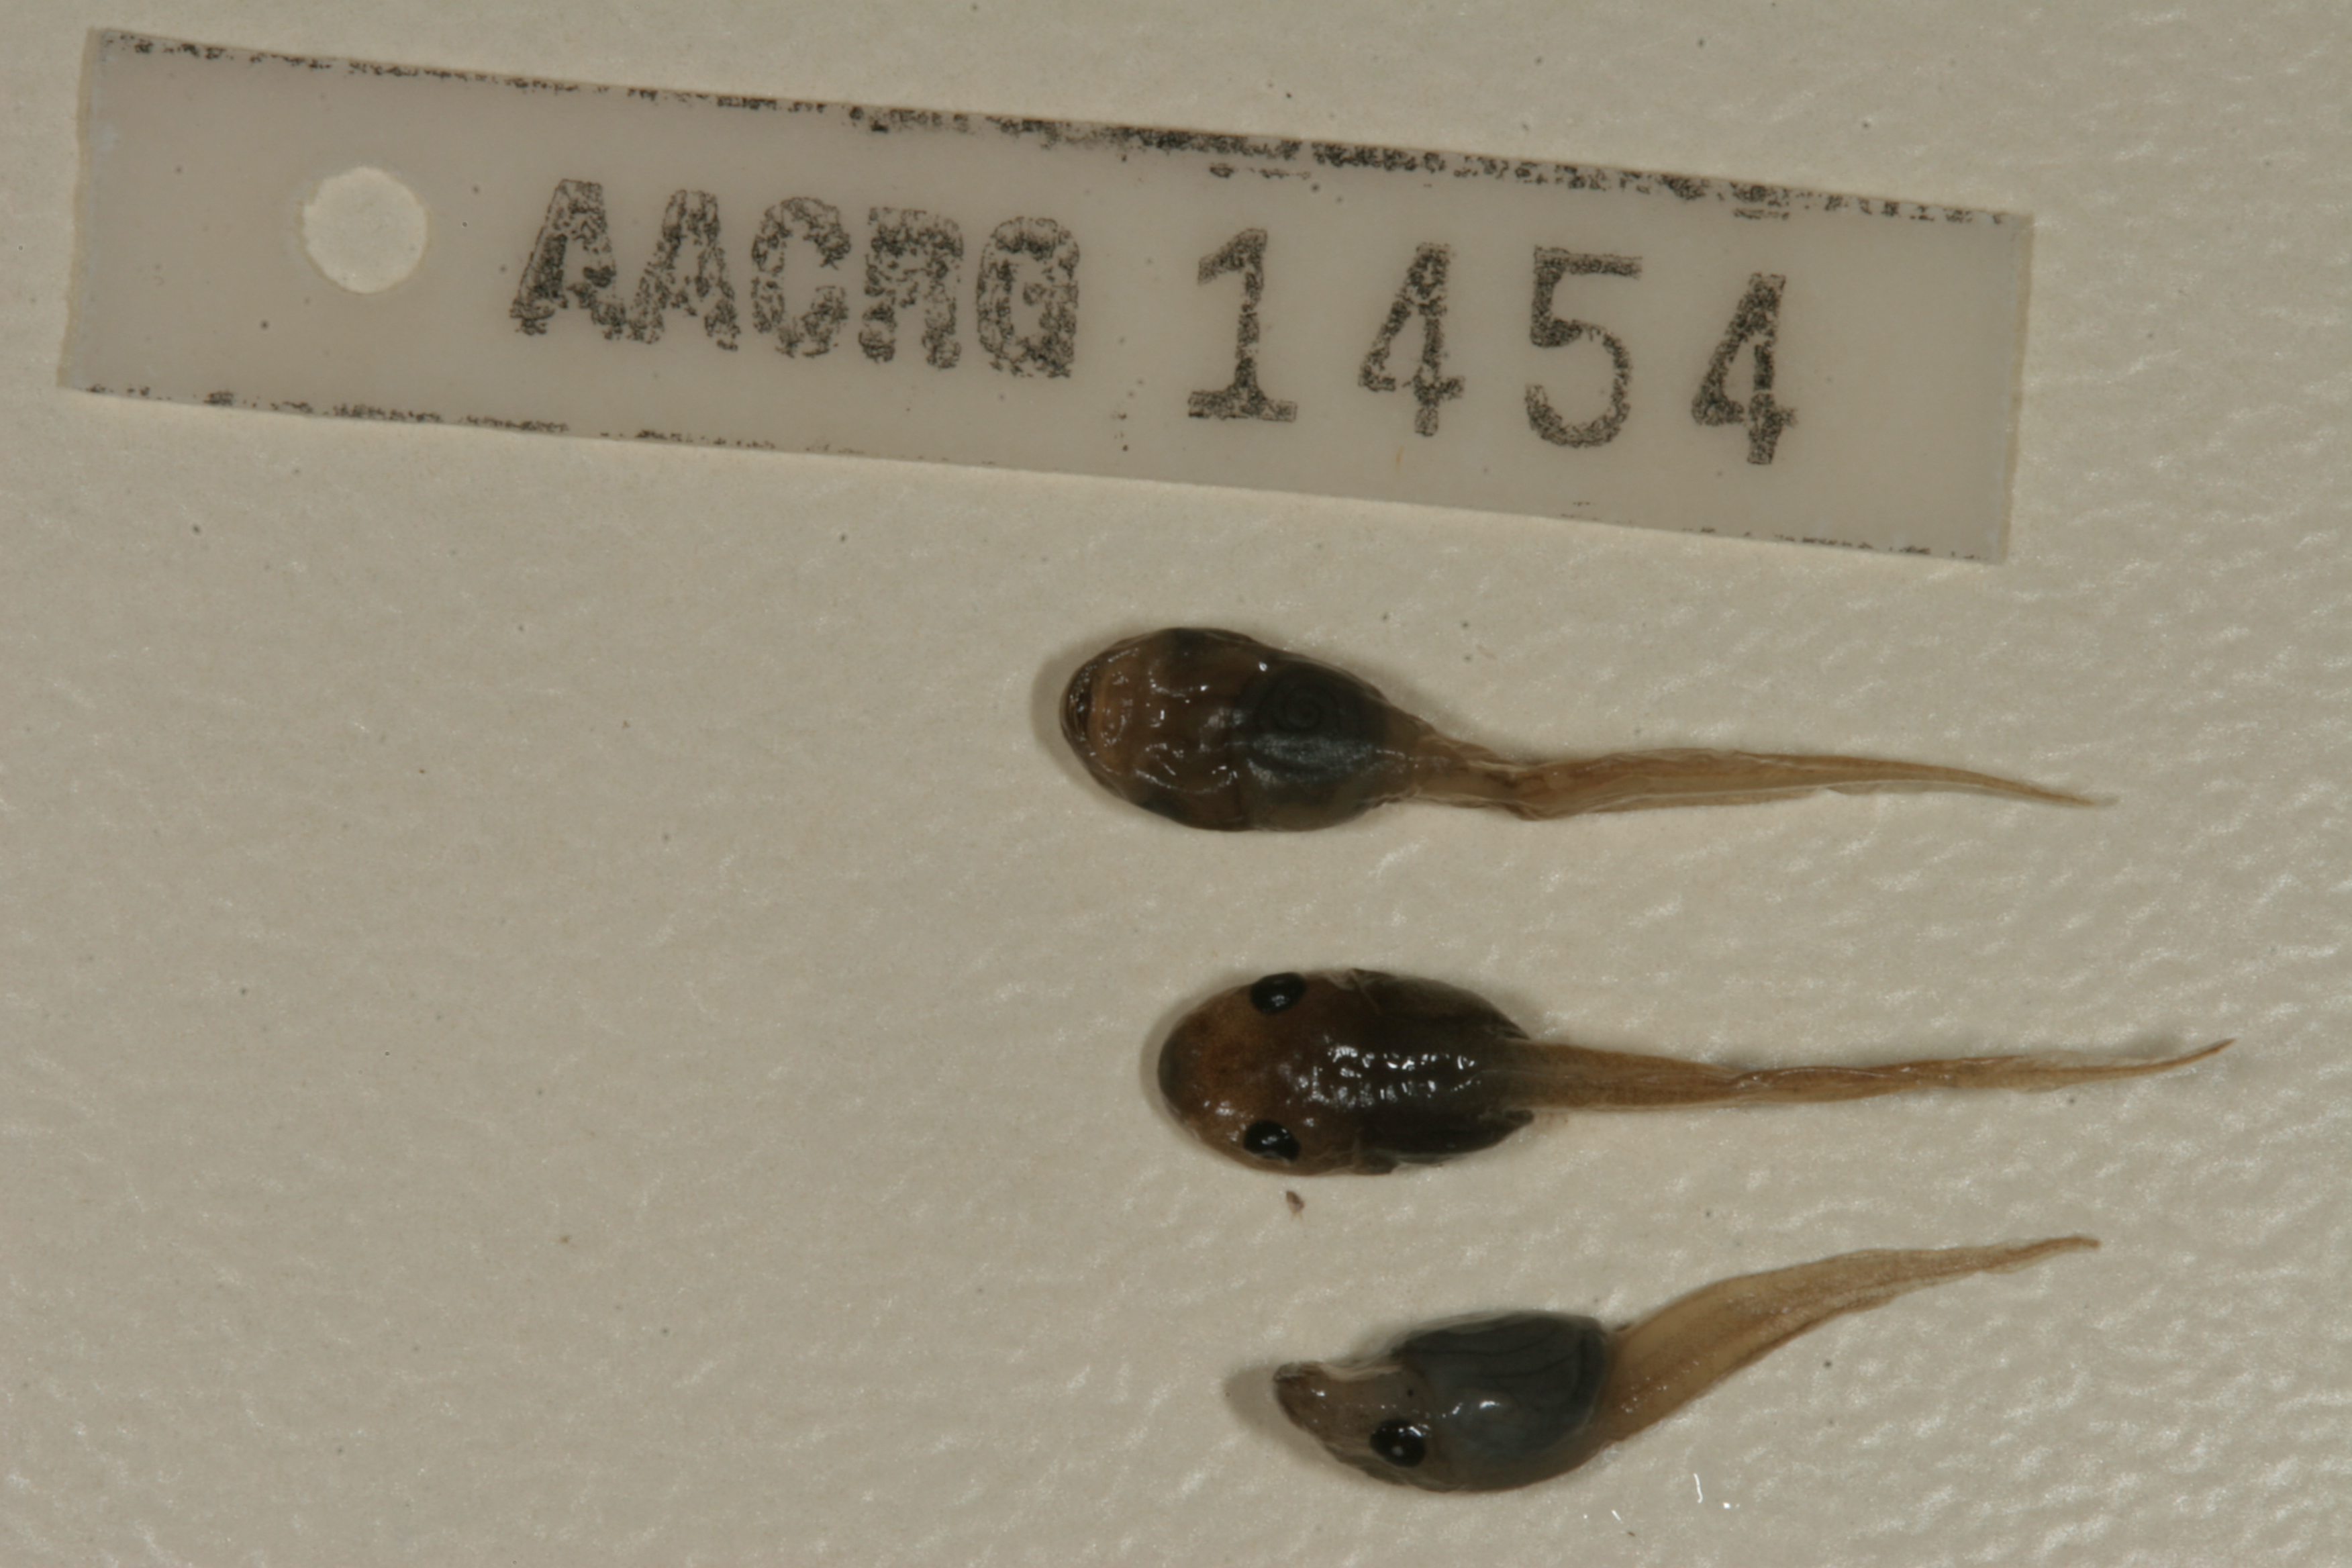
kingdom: Animalia
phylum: Chordata
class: Amphibia
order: Anura
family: Hemisotidae
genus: Hemisus
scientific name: Hemisus marmoratus
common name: Mottled shovel-nosed frog
